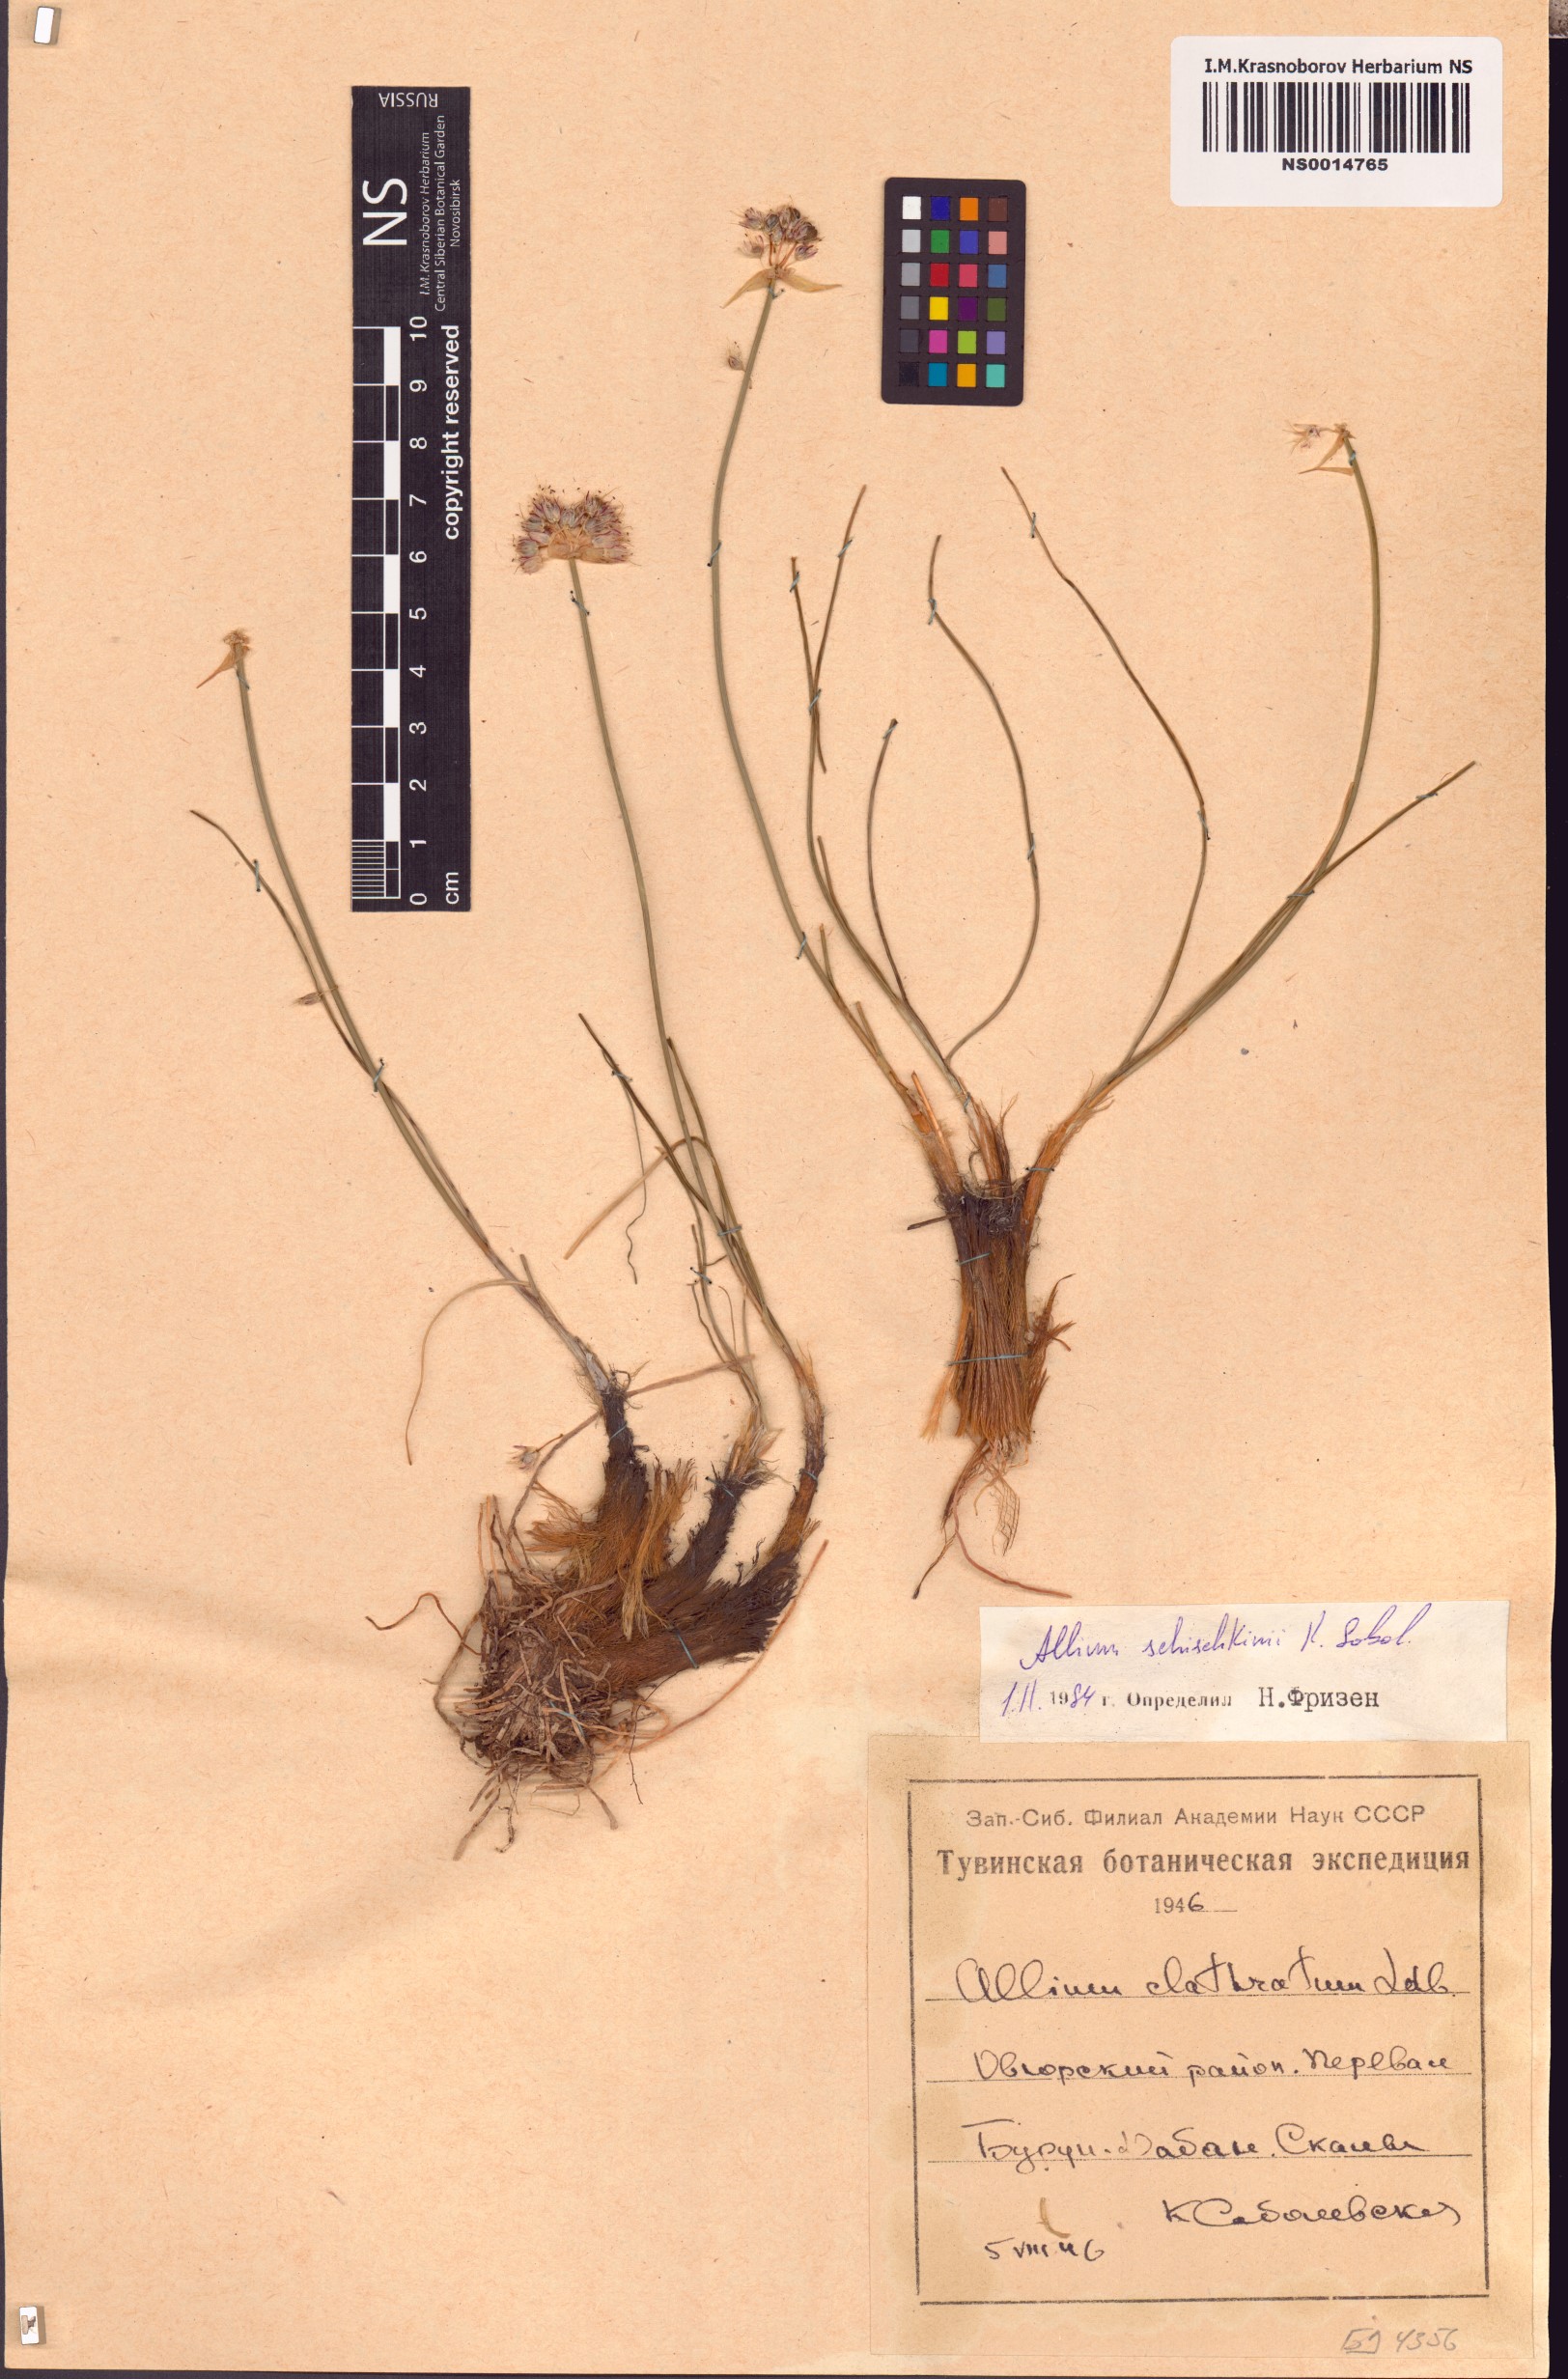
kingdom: Plantae
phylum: Tracheophyta
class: Liliopsida
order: Asparagales
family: Amaryllidaceae
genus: Allium
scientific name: Allium schischkinii
